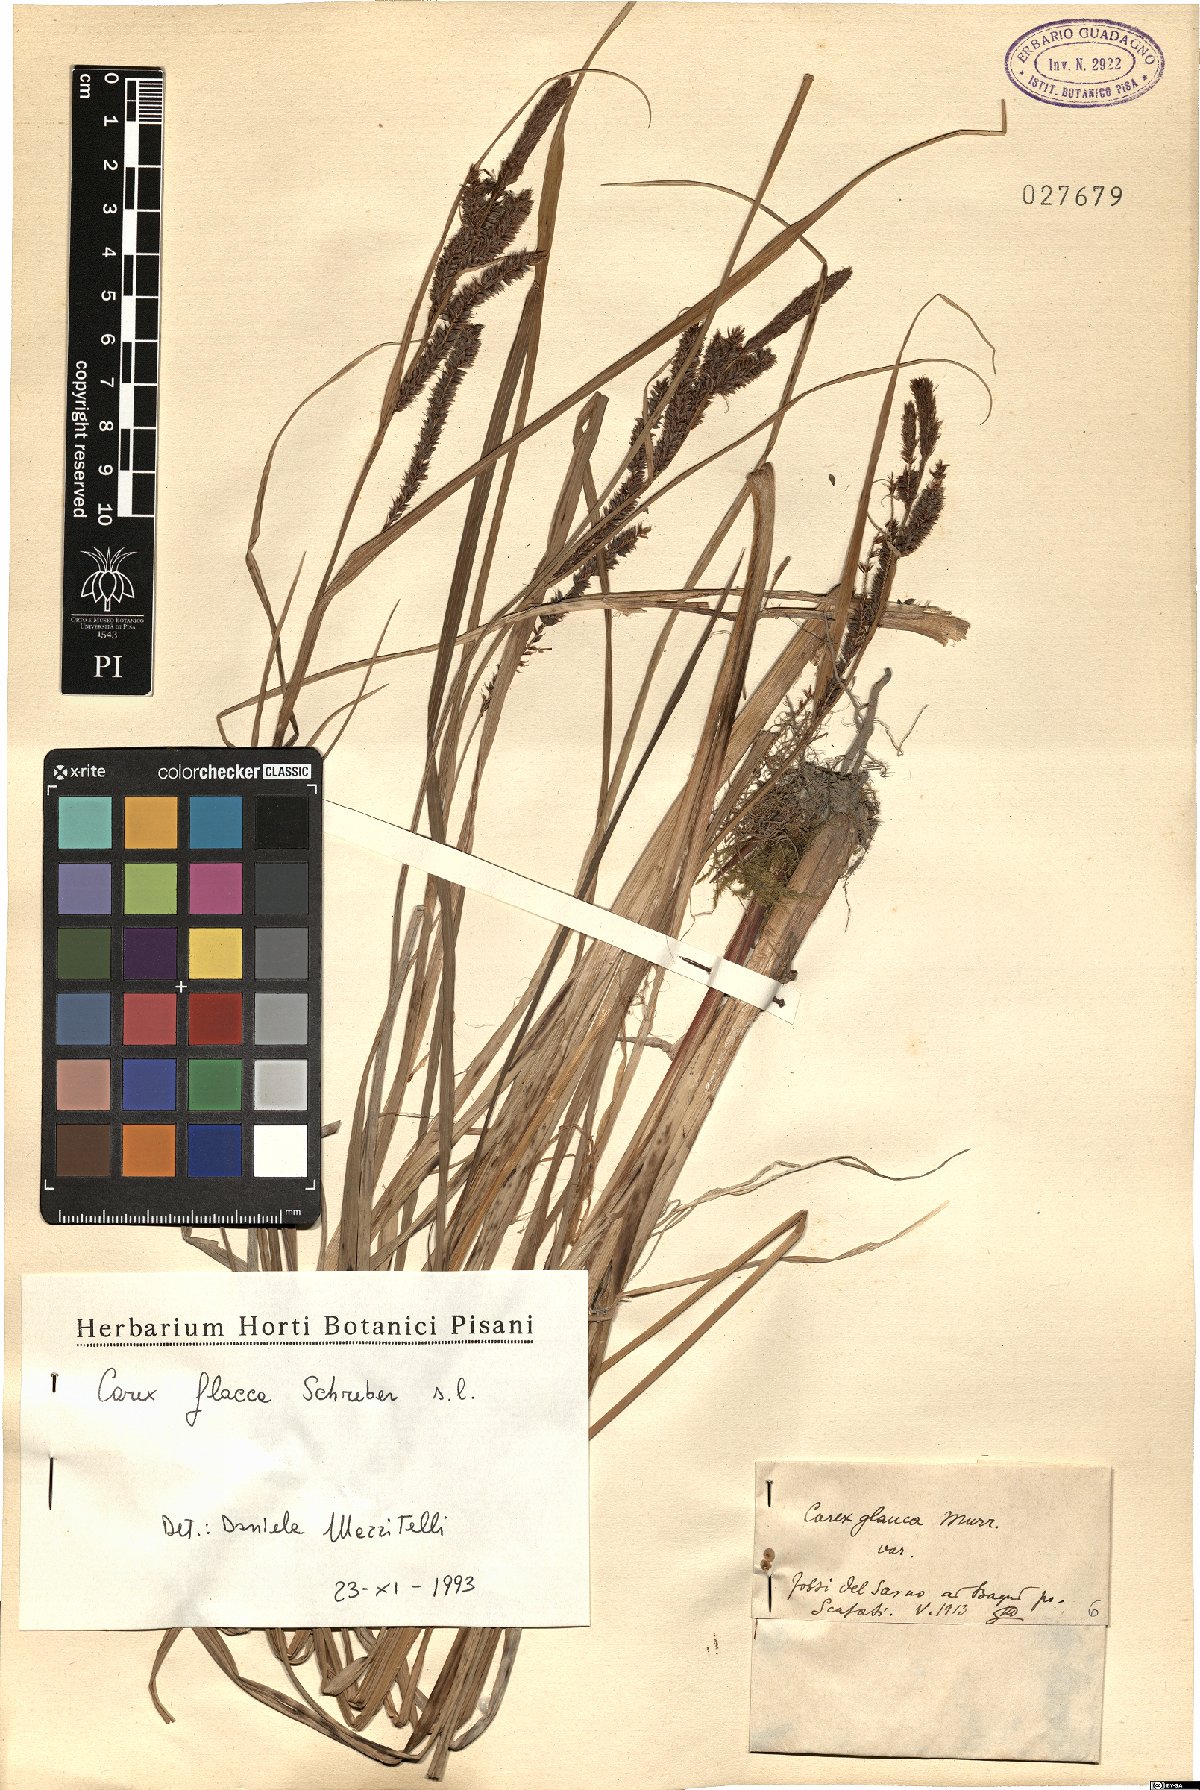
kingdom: Plantae
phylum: Tracheophyta
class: Liliopsida
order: Poales
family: Cyperaceae
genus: Carex
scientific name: Carex flacca
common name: Glaucous sedge
